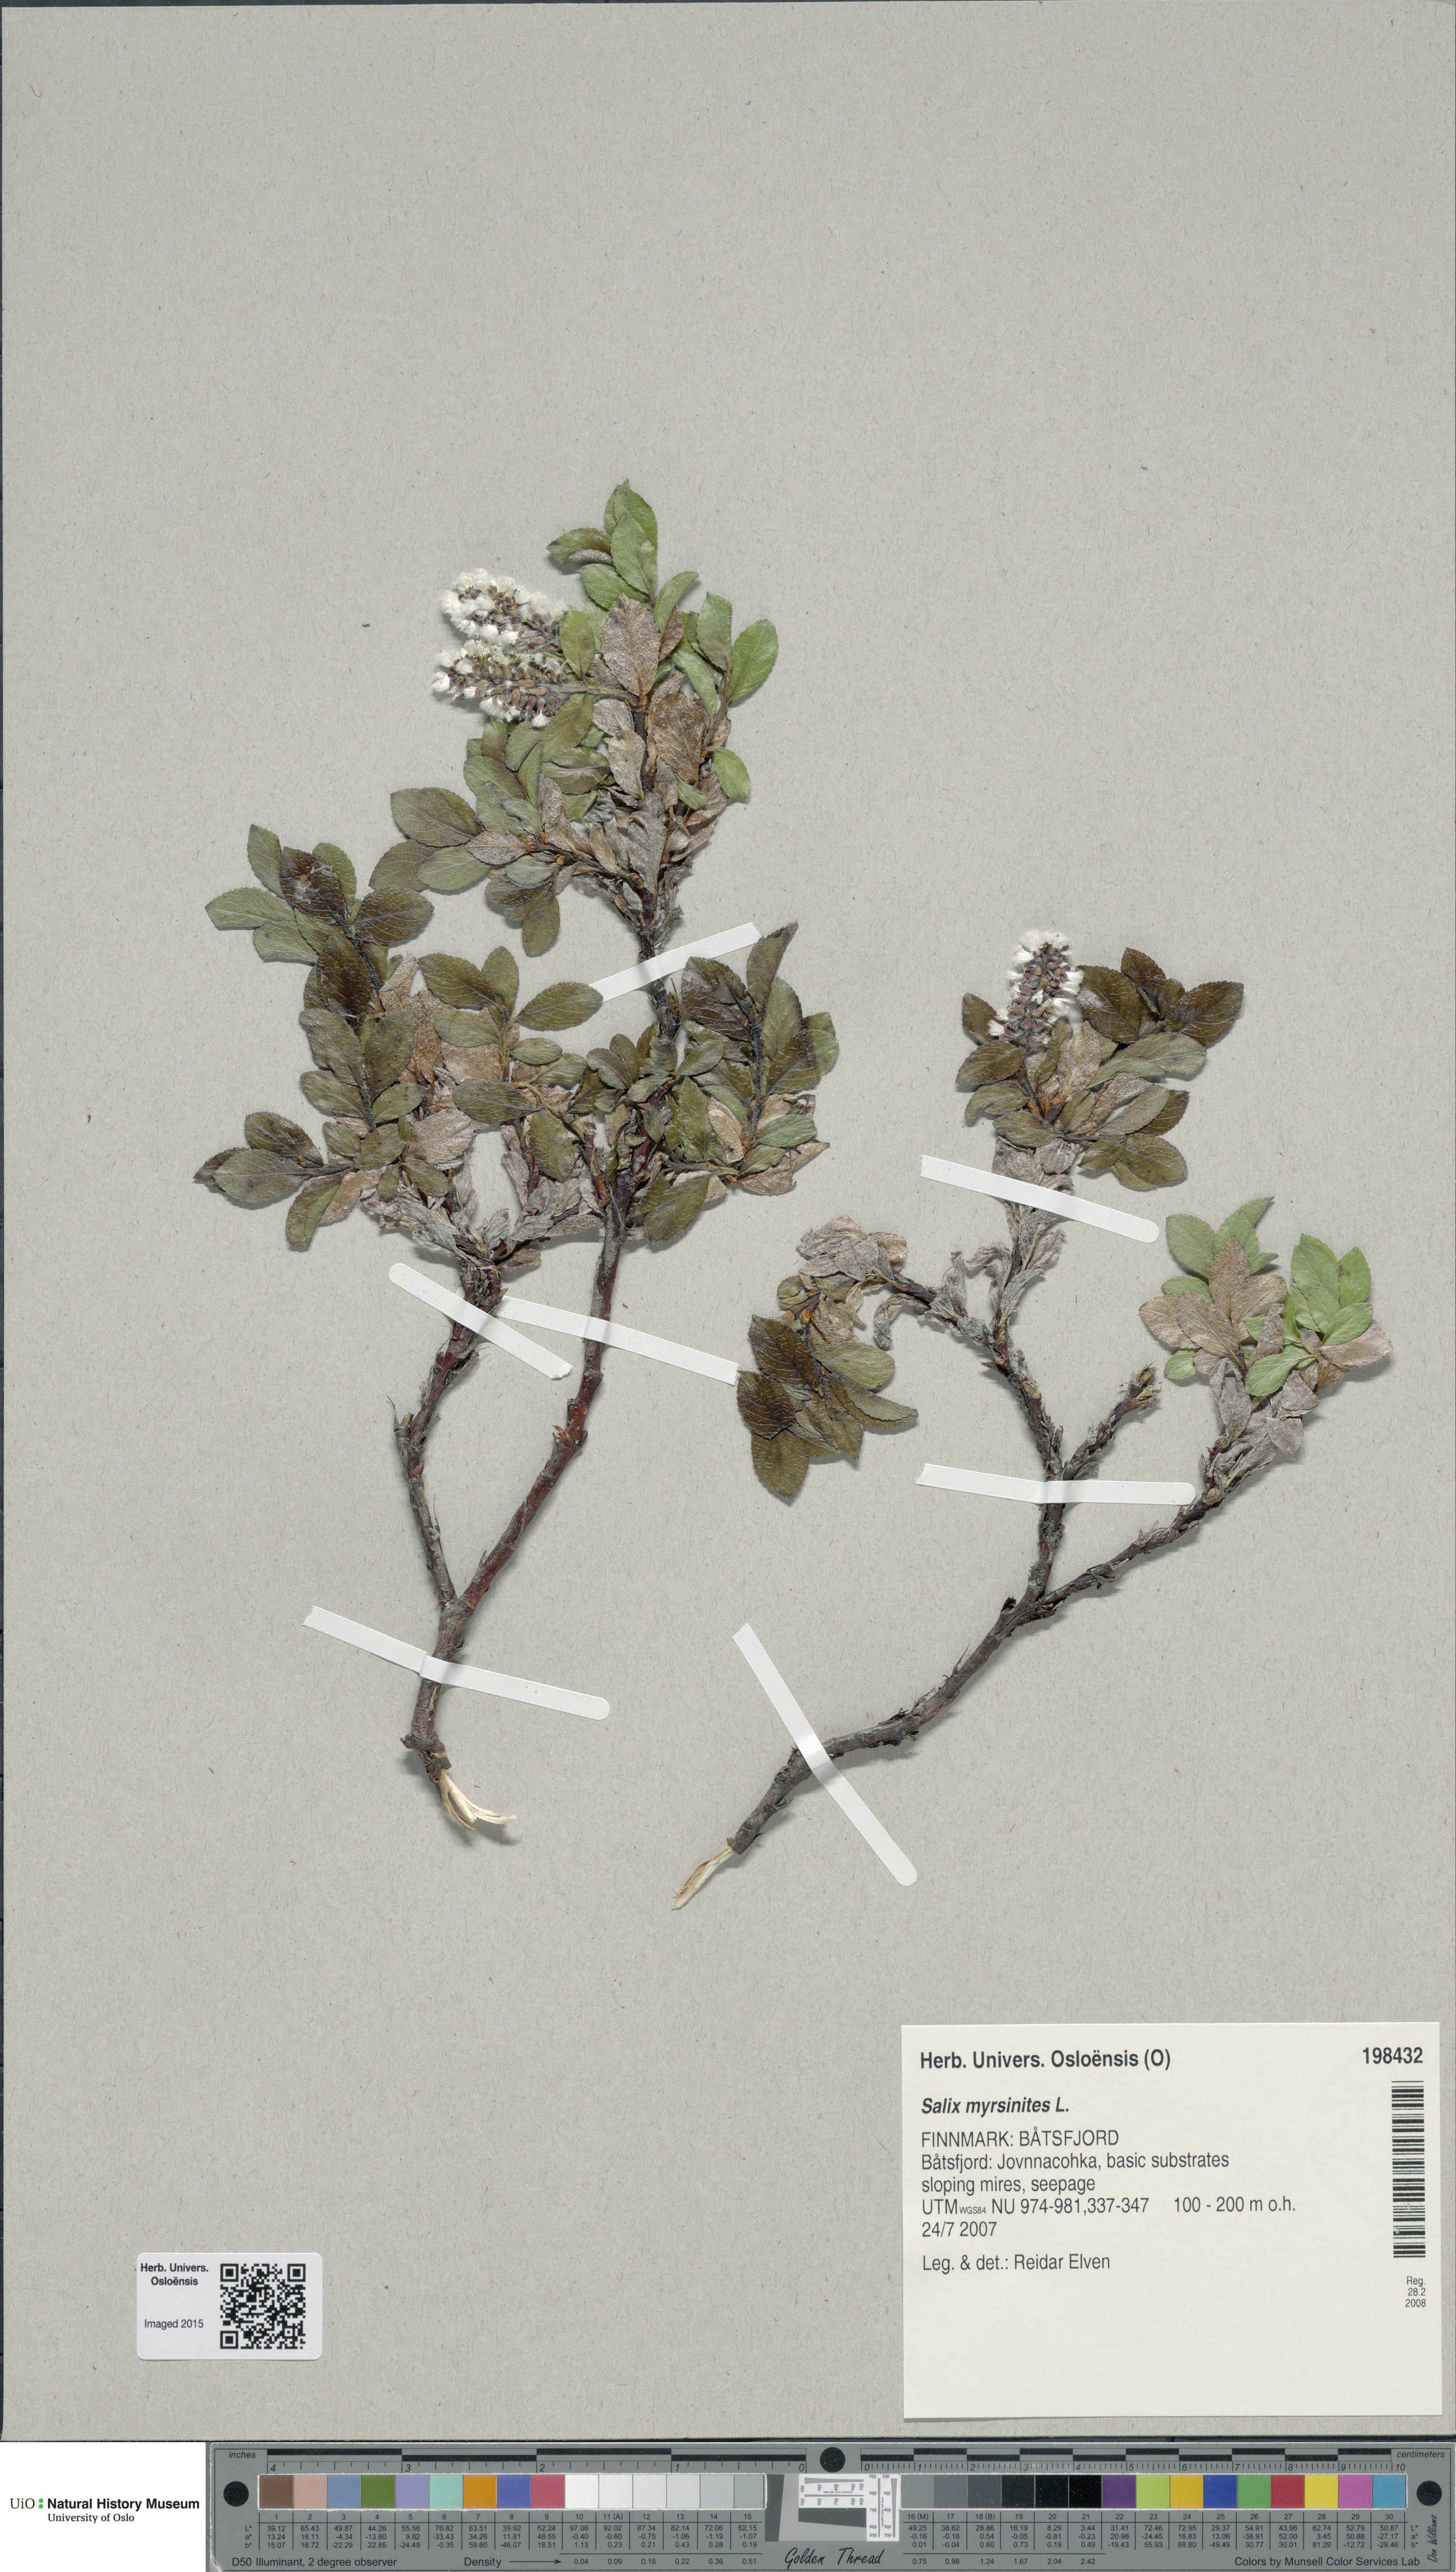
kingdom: Plantae
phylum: Tracheophyta
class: Magnoliopsida
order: Malpighiales
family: Salicaceae
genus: Salix
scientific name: Salix myrsinites
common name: Myrtle willow
